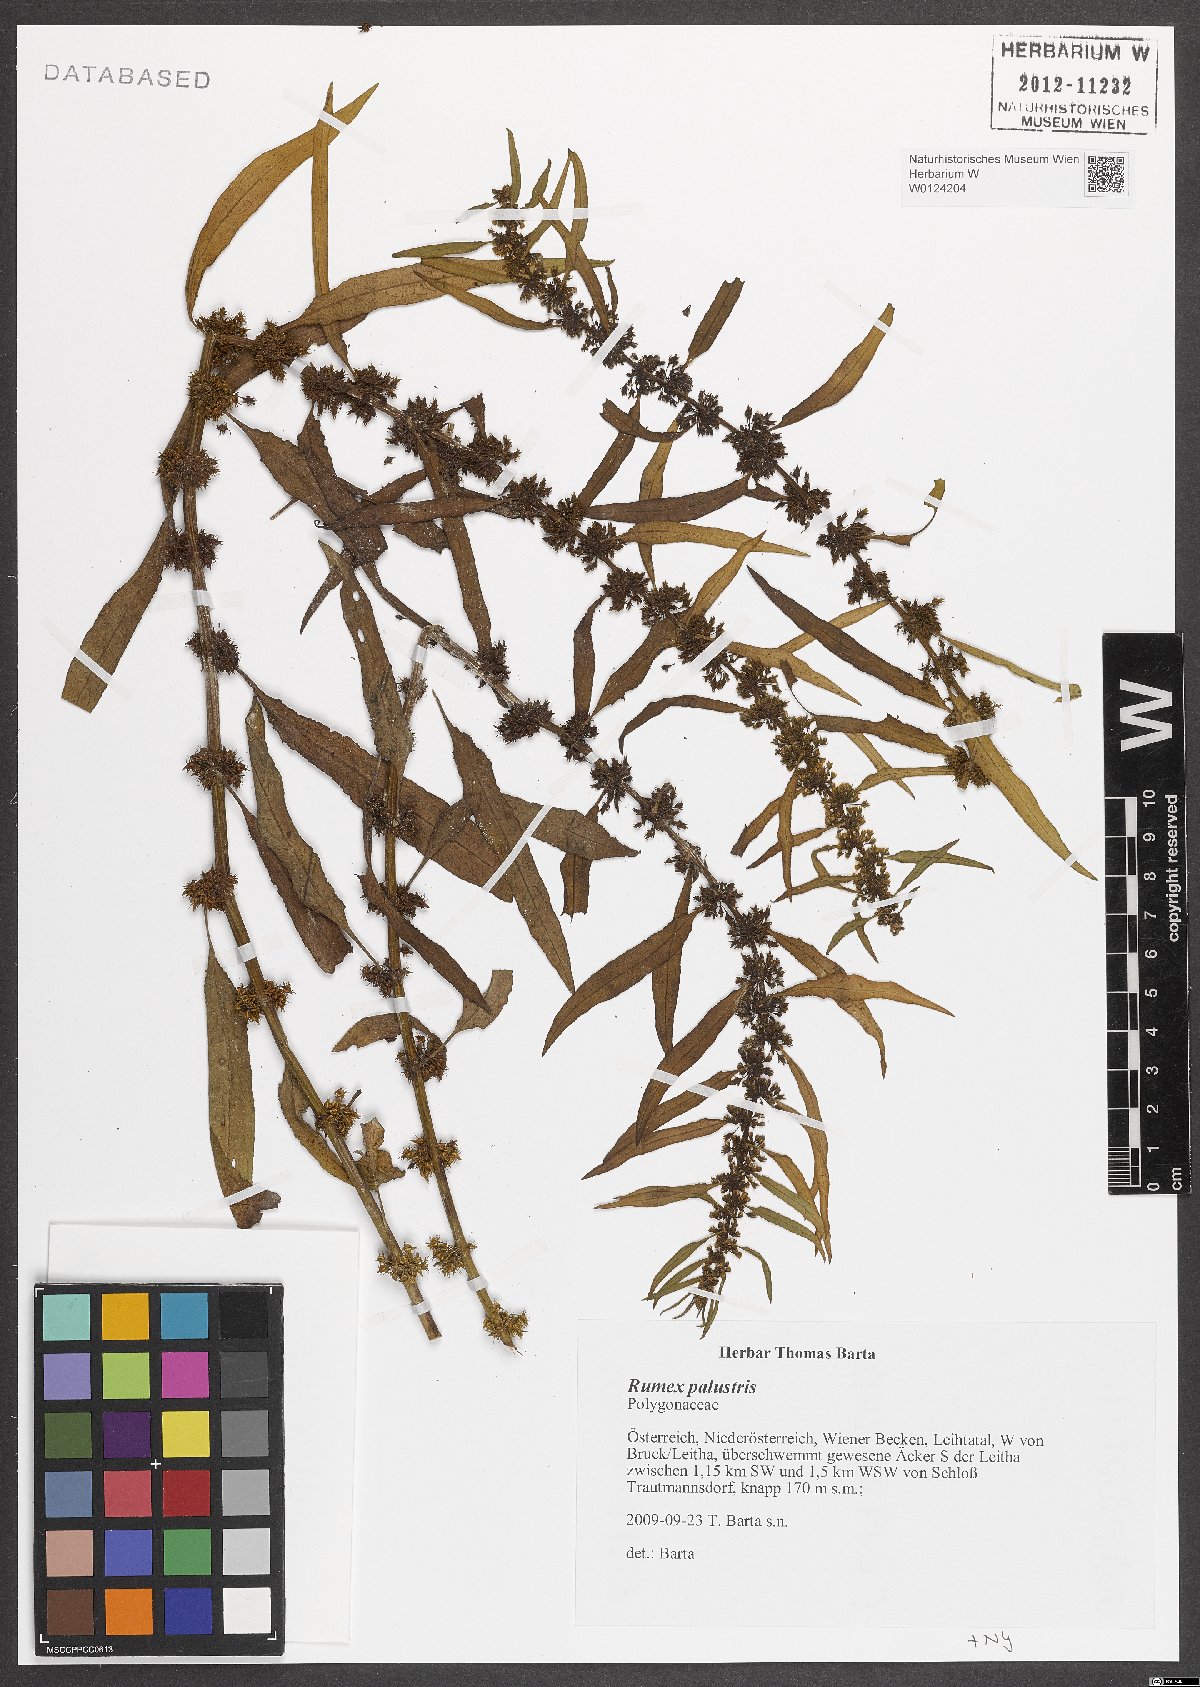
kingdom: Plantae
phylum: Tracheophyta
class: Magnoliopsida
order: Caryophyllales
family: Polygonaceae
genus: Rumex
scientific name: Rumex palustris
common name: Marsh dock
